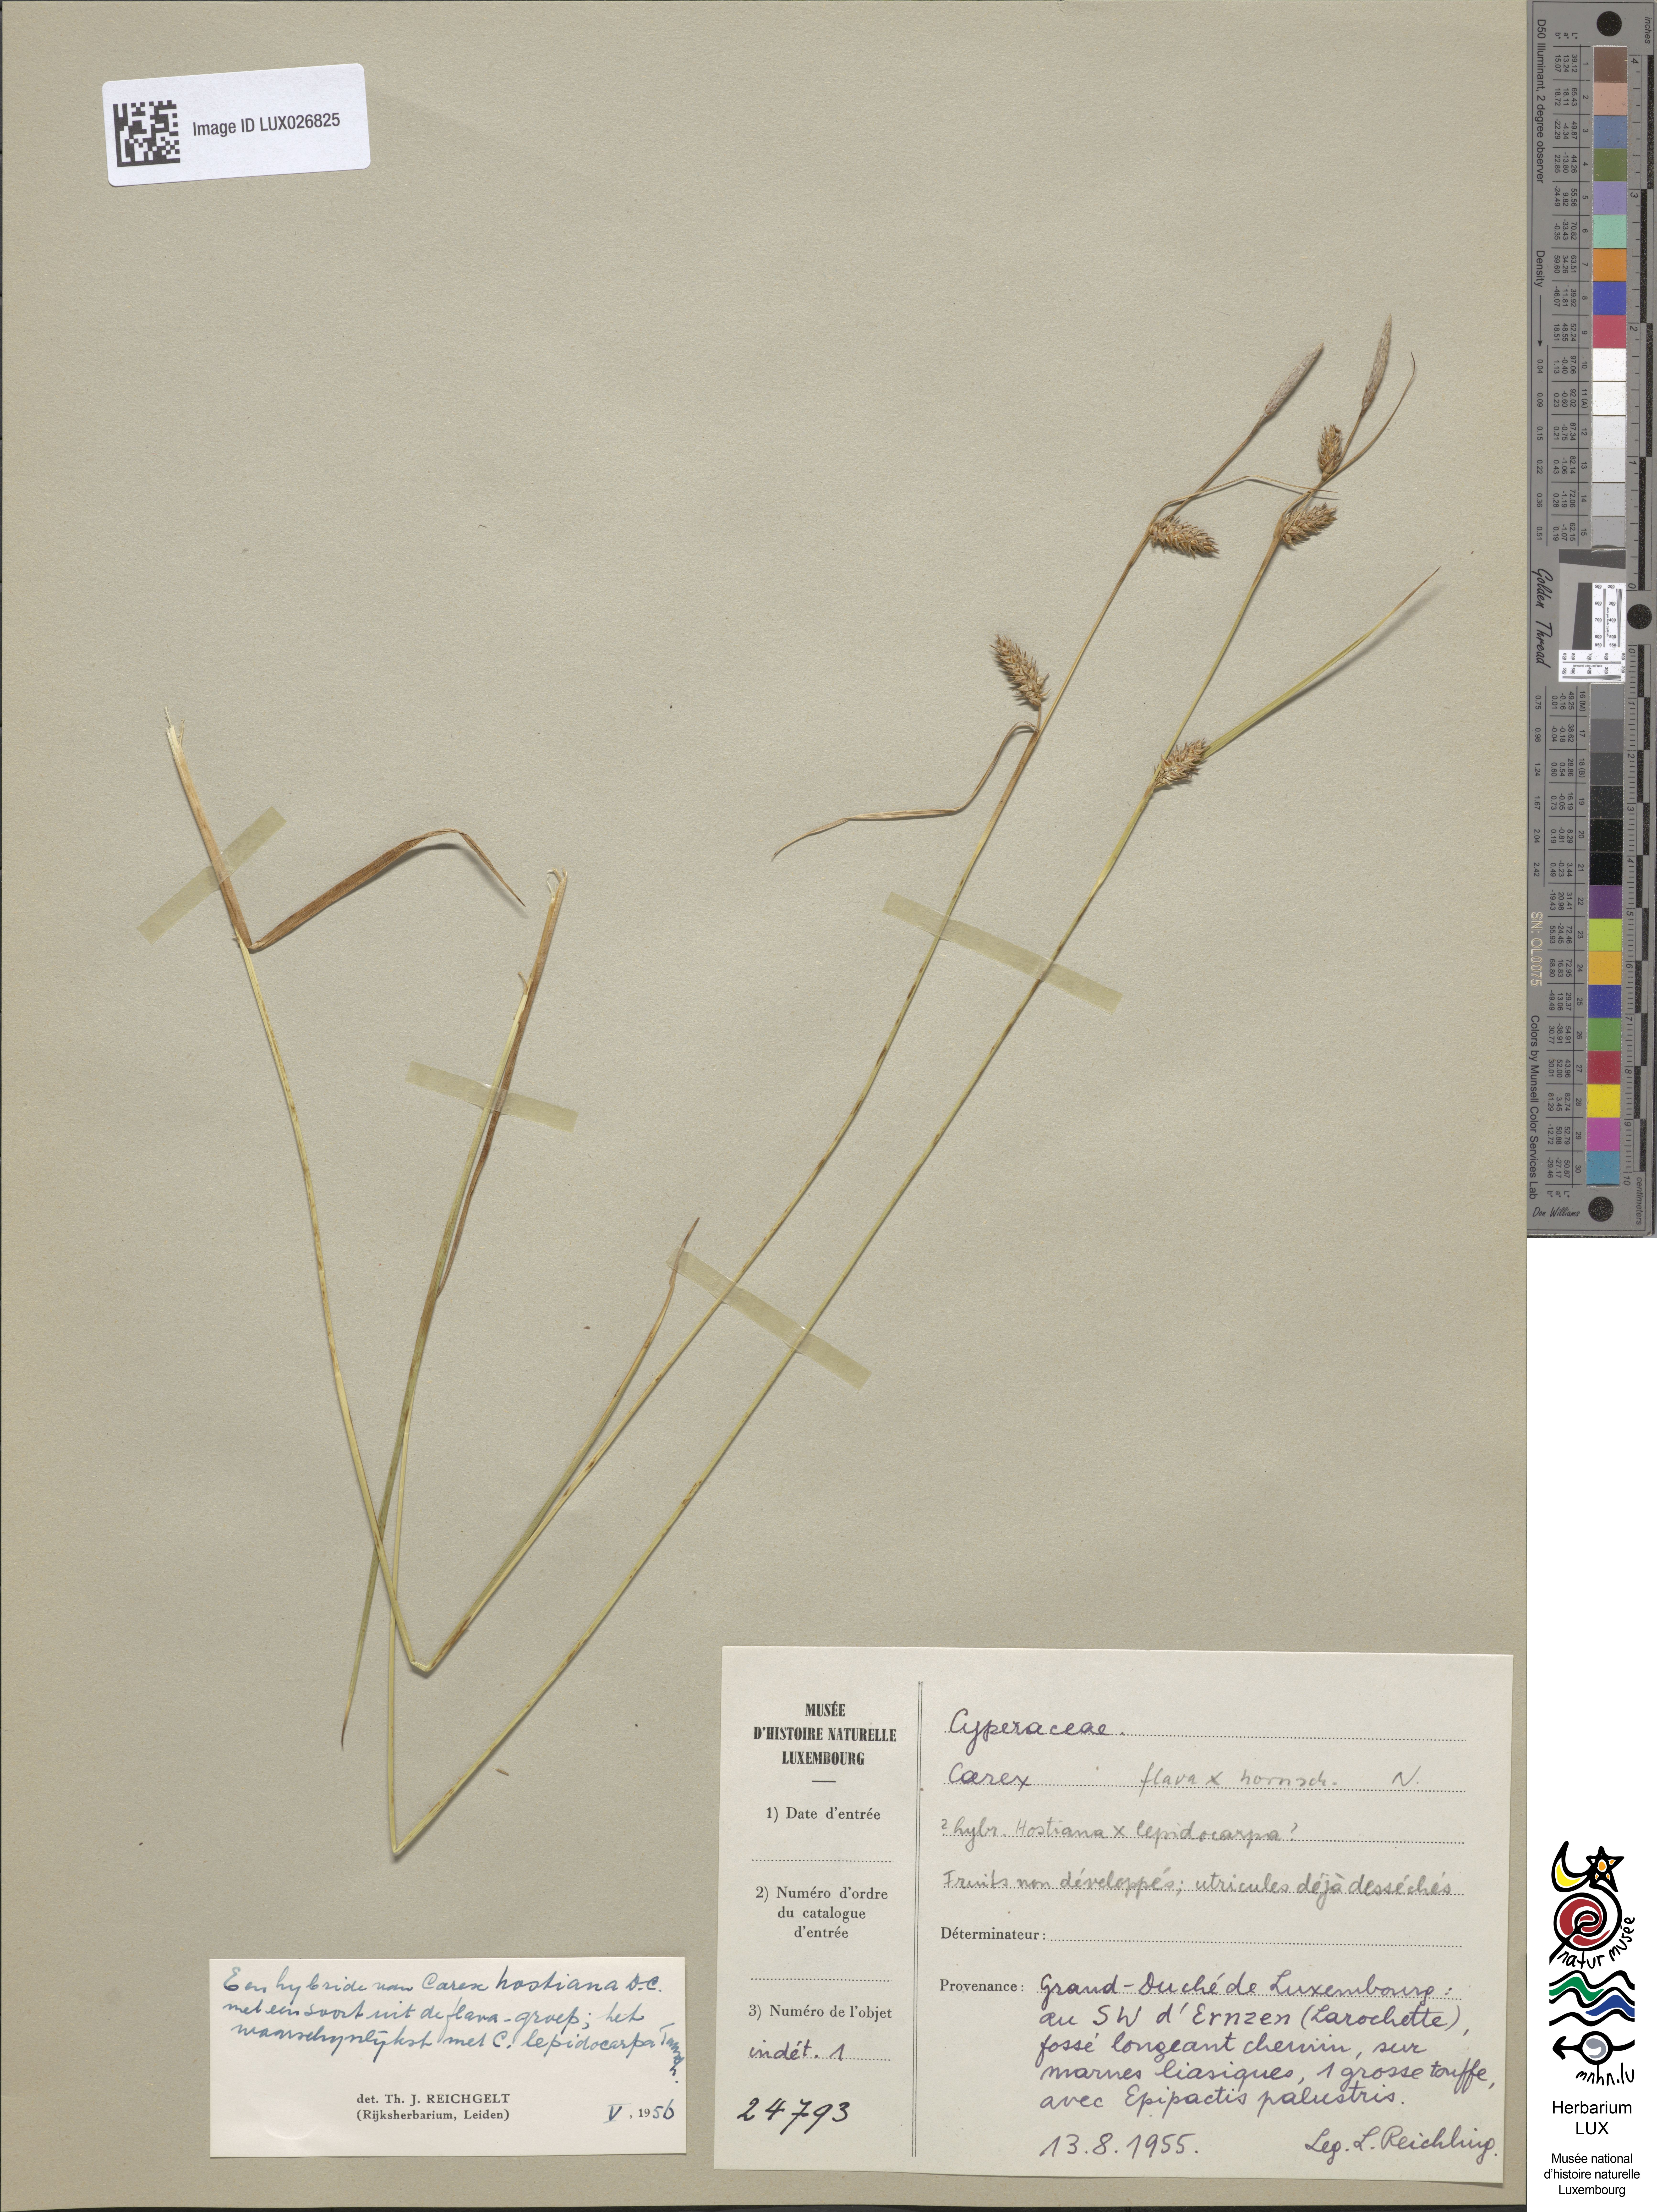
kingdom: Plantae
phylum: Tracheophyta
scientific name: Tracheophyta
